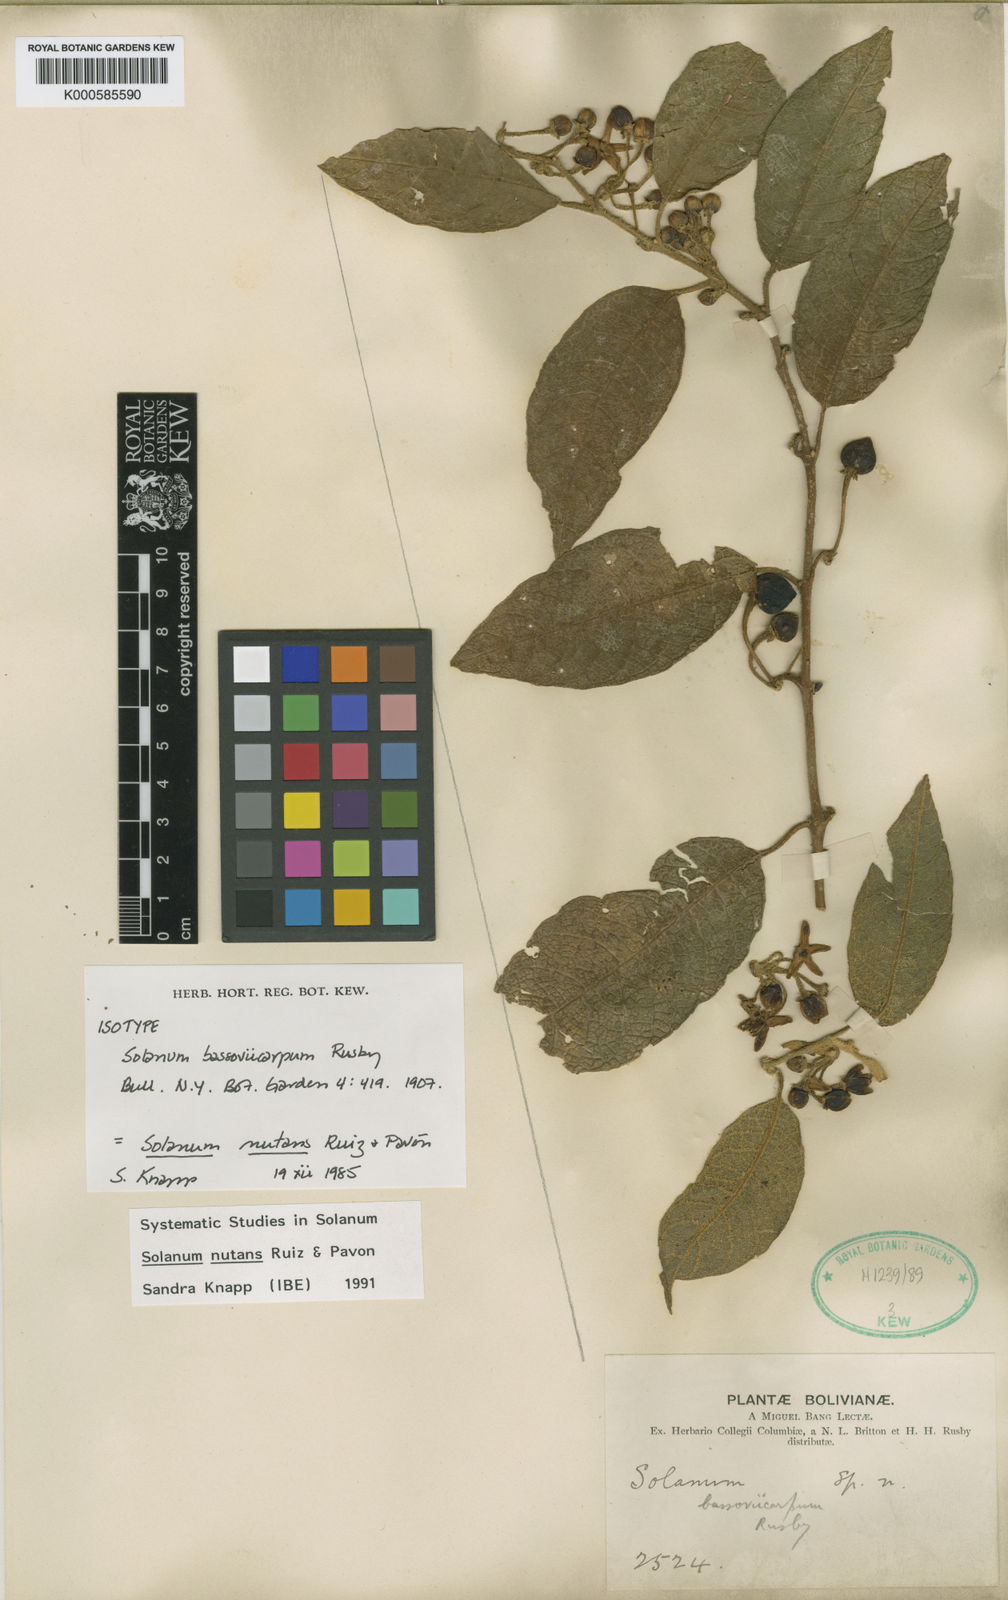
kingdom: Plantae
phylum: Tracheophyta
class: Magnoliopsida
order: Solanales
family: Solanaceae
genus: Solanum
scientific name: Solanum nutans
